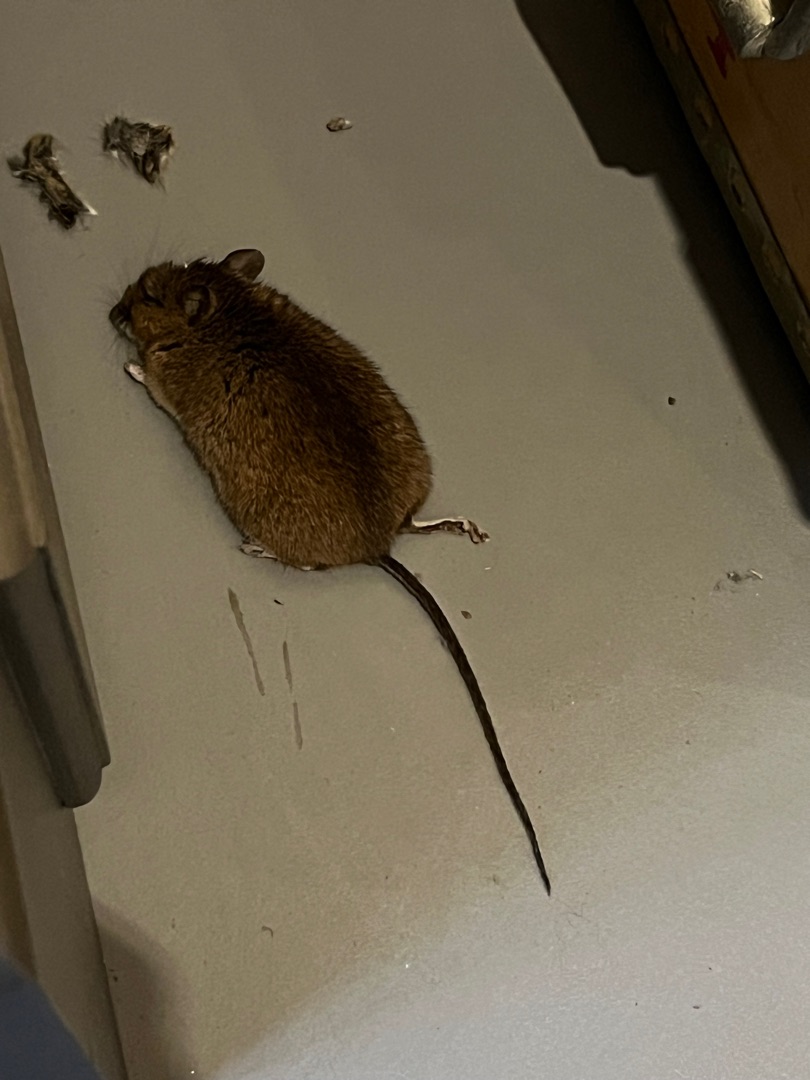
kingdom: Animalia
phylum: Chordata
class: Mammalia
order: Rodentia
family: Muridae
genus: Apodemus
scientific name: Apodemus flavicollis
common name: Halsbåndmus
